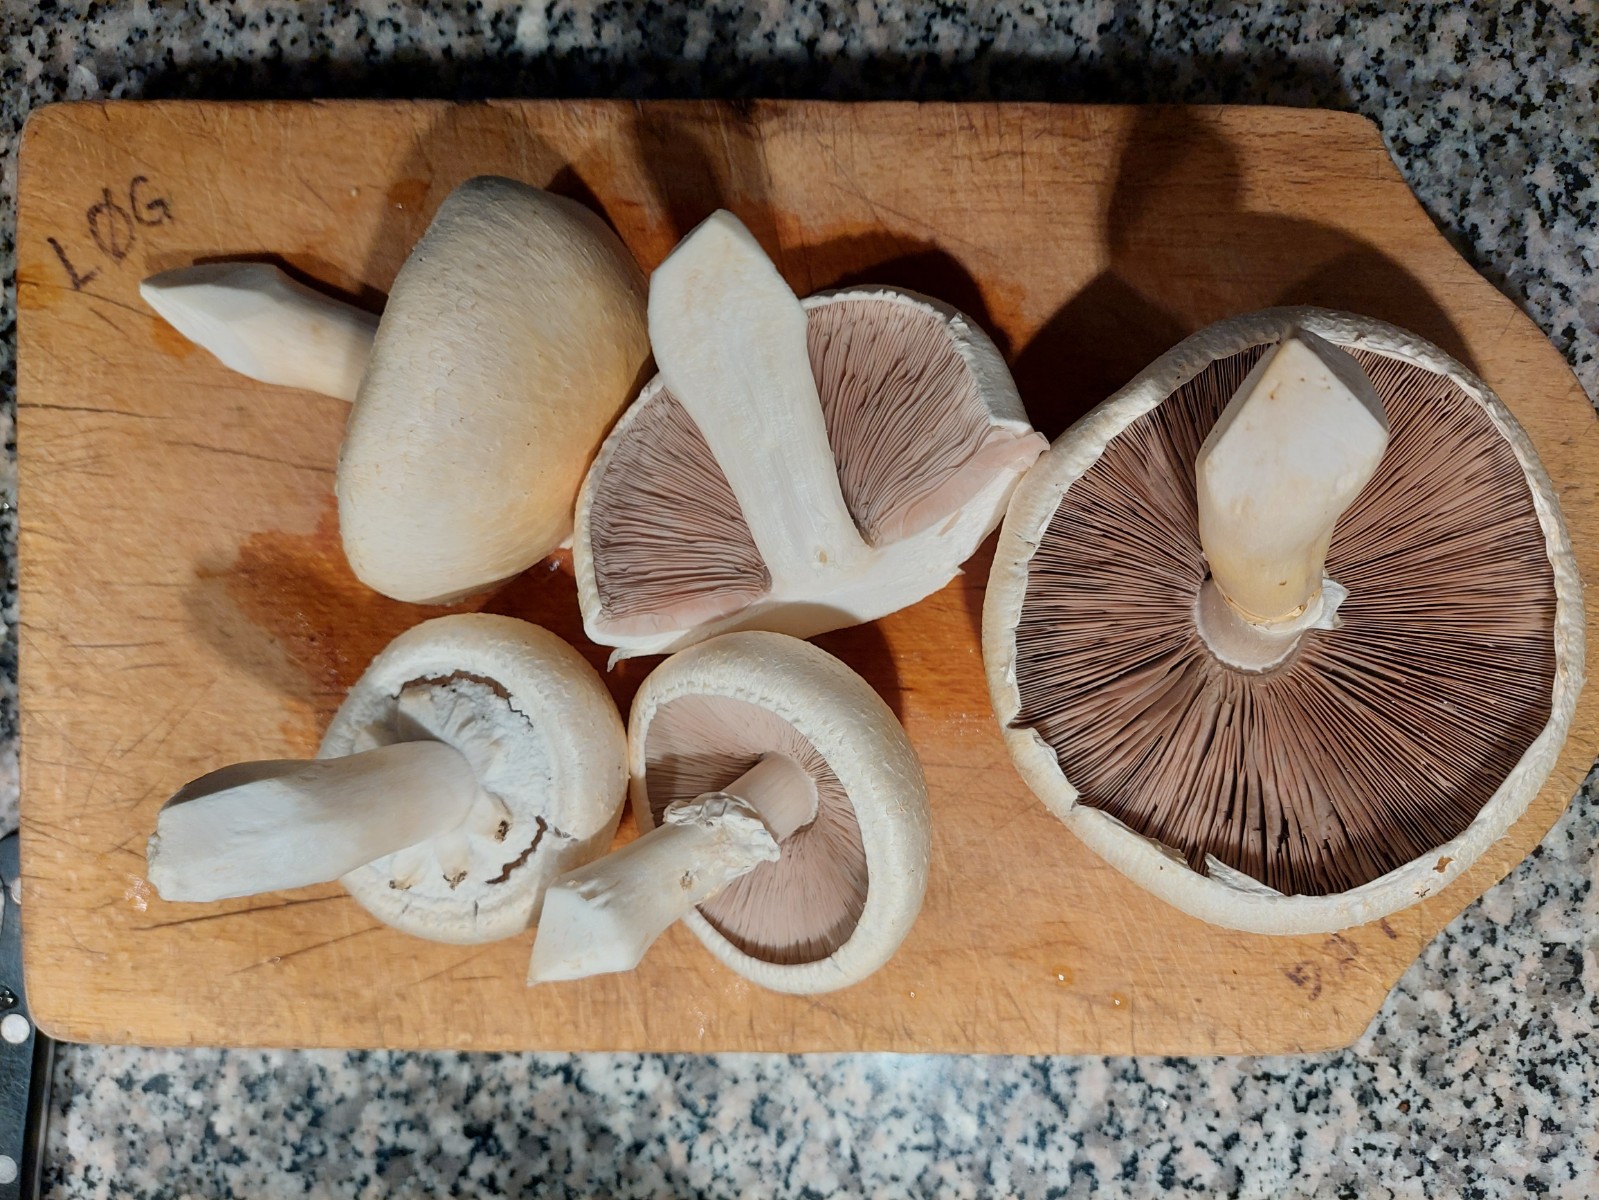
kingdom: Fungi
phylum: Basidiomycota
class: Agaricomycetes
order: Agaricales
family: Agaricaceae
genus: Agaricus
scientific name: Agaricus
